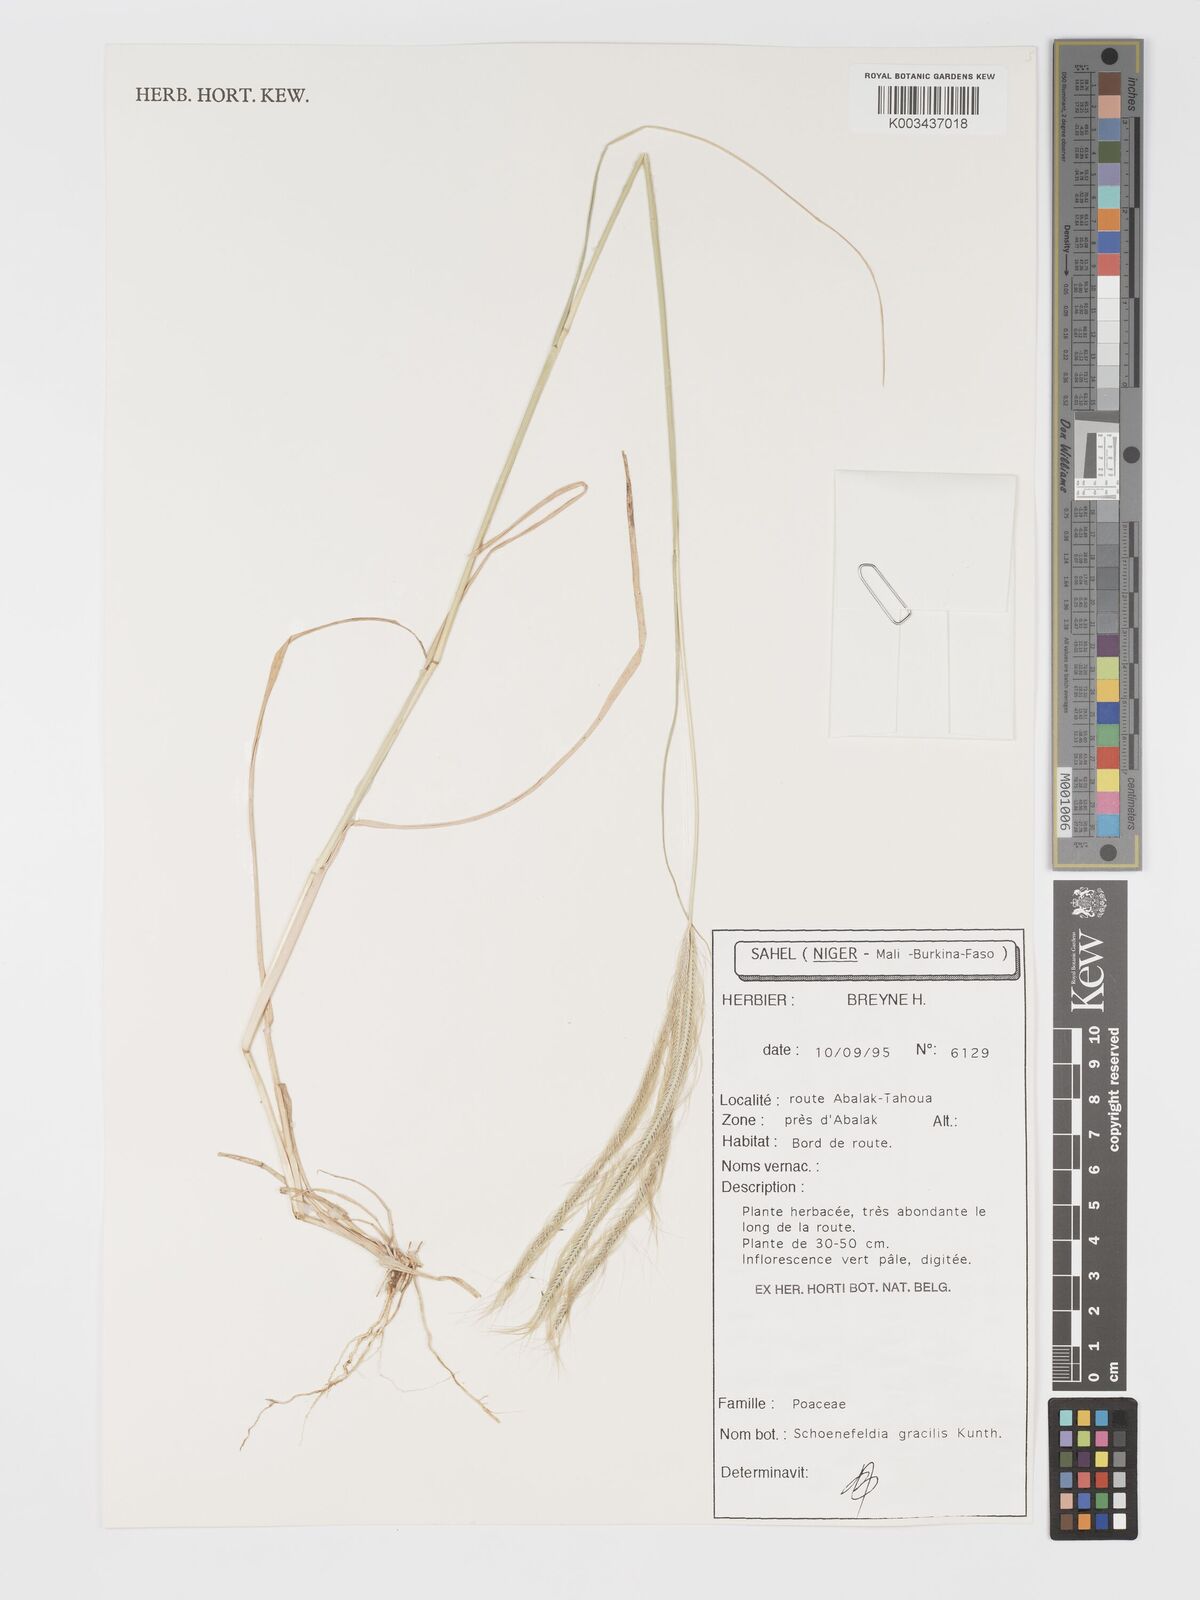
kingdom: Plantae
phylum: Tracheophyta
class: Liliopsida
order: Poales
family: Poaceae
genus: Schoenefeldia
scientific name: Schoenefeldia gracilis
